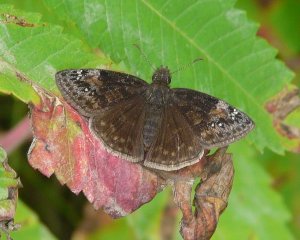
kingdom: Animalia
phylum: Arthropoda
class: Insecta
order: Lepidoptera
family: Hesperiidae
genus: Gesta
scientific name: Gesta
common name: Wild Indigo Duskywing
